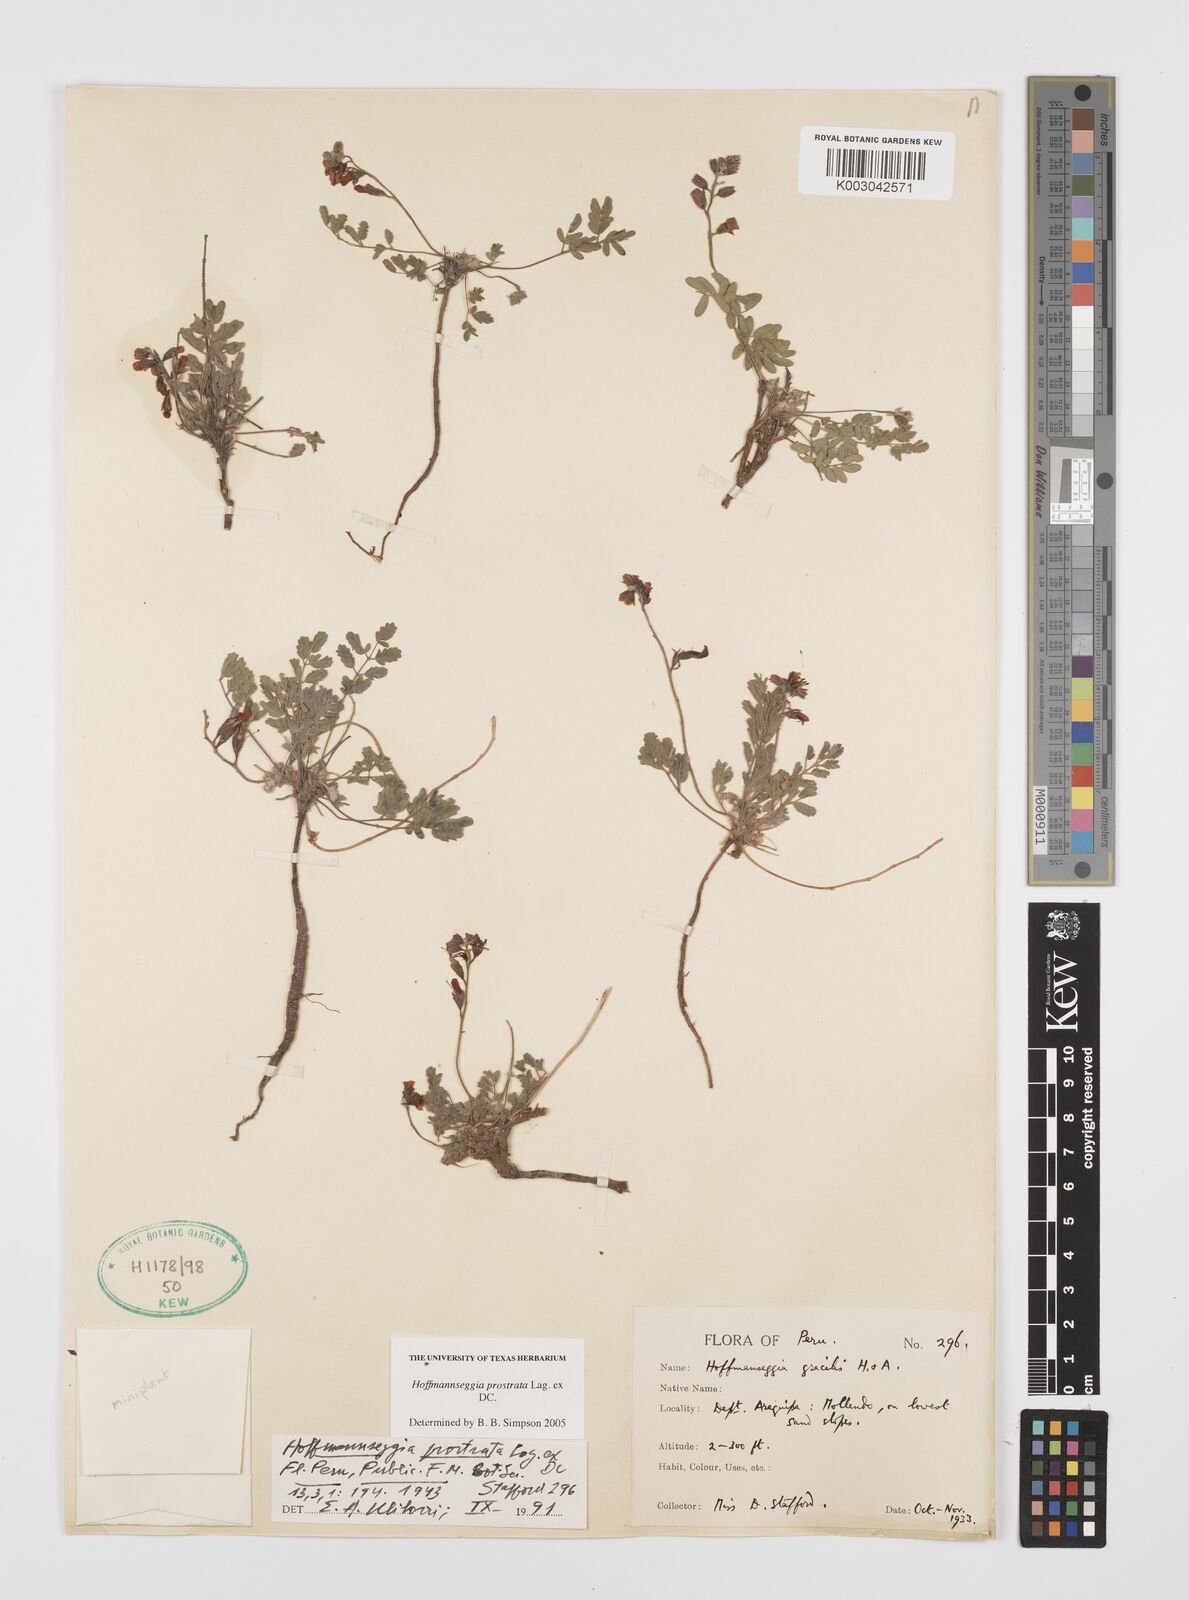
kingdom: Plantae
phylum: Tracheophyta
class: Magnoliopsida
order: Fabales
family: Fabaceae
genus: Hoffmannseggia
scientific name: Hoffmannseggia prostrata
